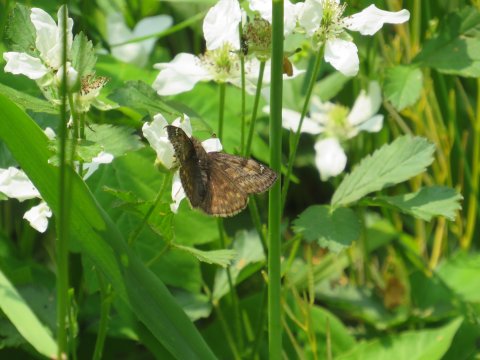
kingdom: Animalia
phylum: Arthropoda
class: Insecta
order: Lepidoptera
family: Hesperiidae
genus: Gesta
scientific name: Gesta
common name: Juvenal's Duskywing
